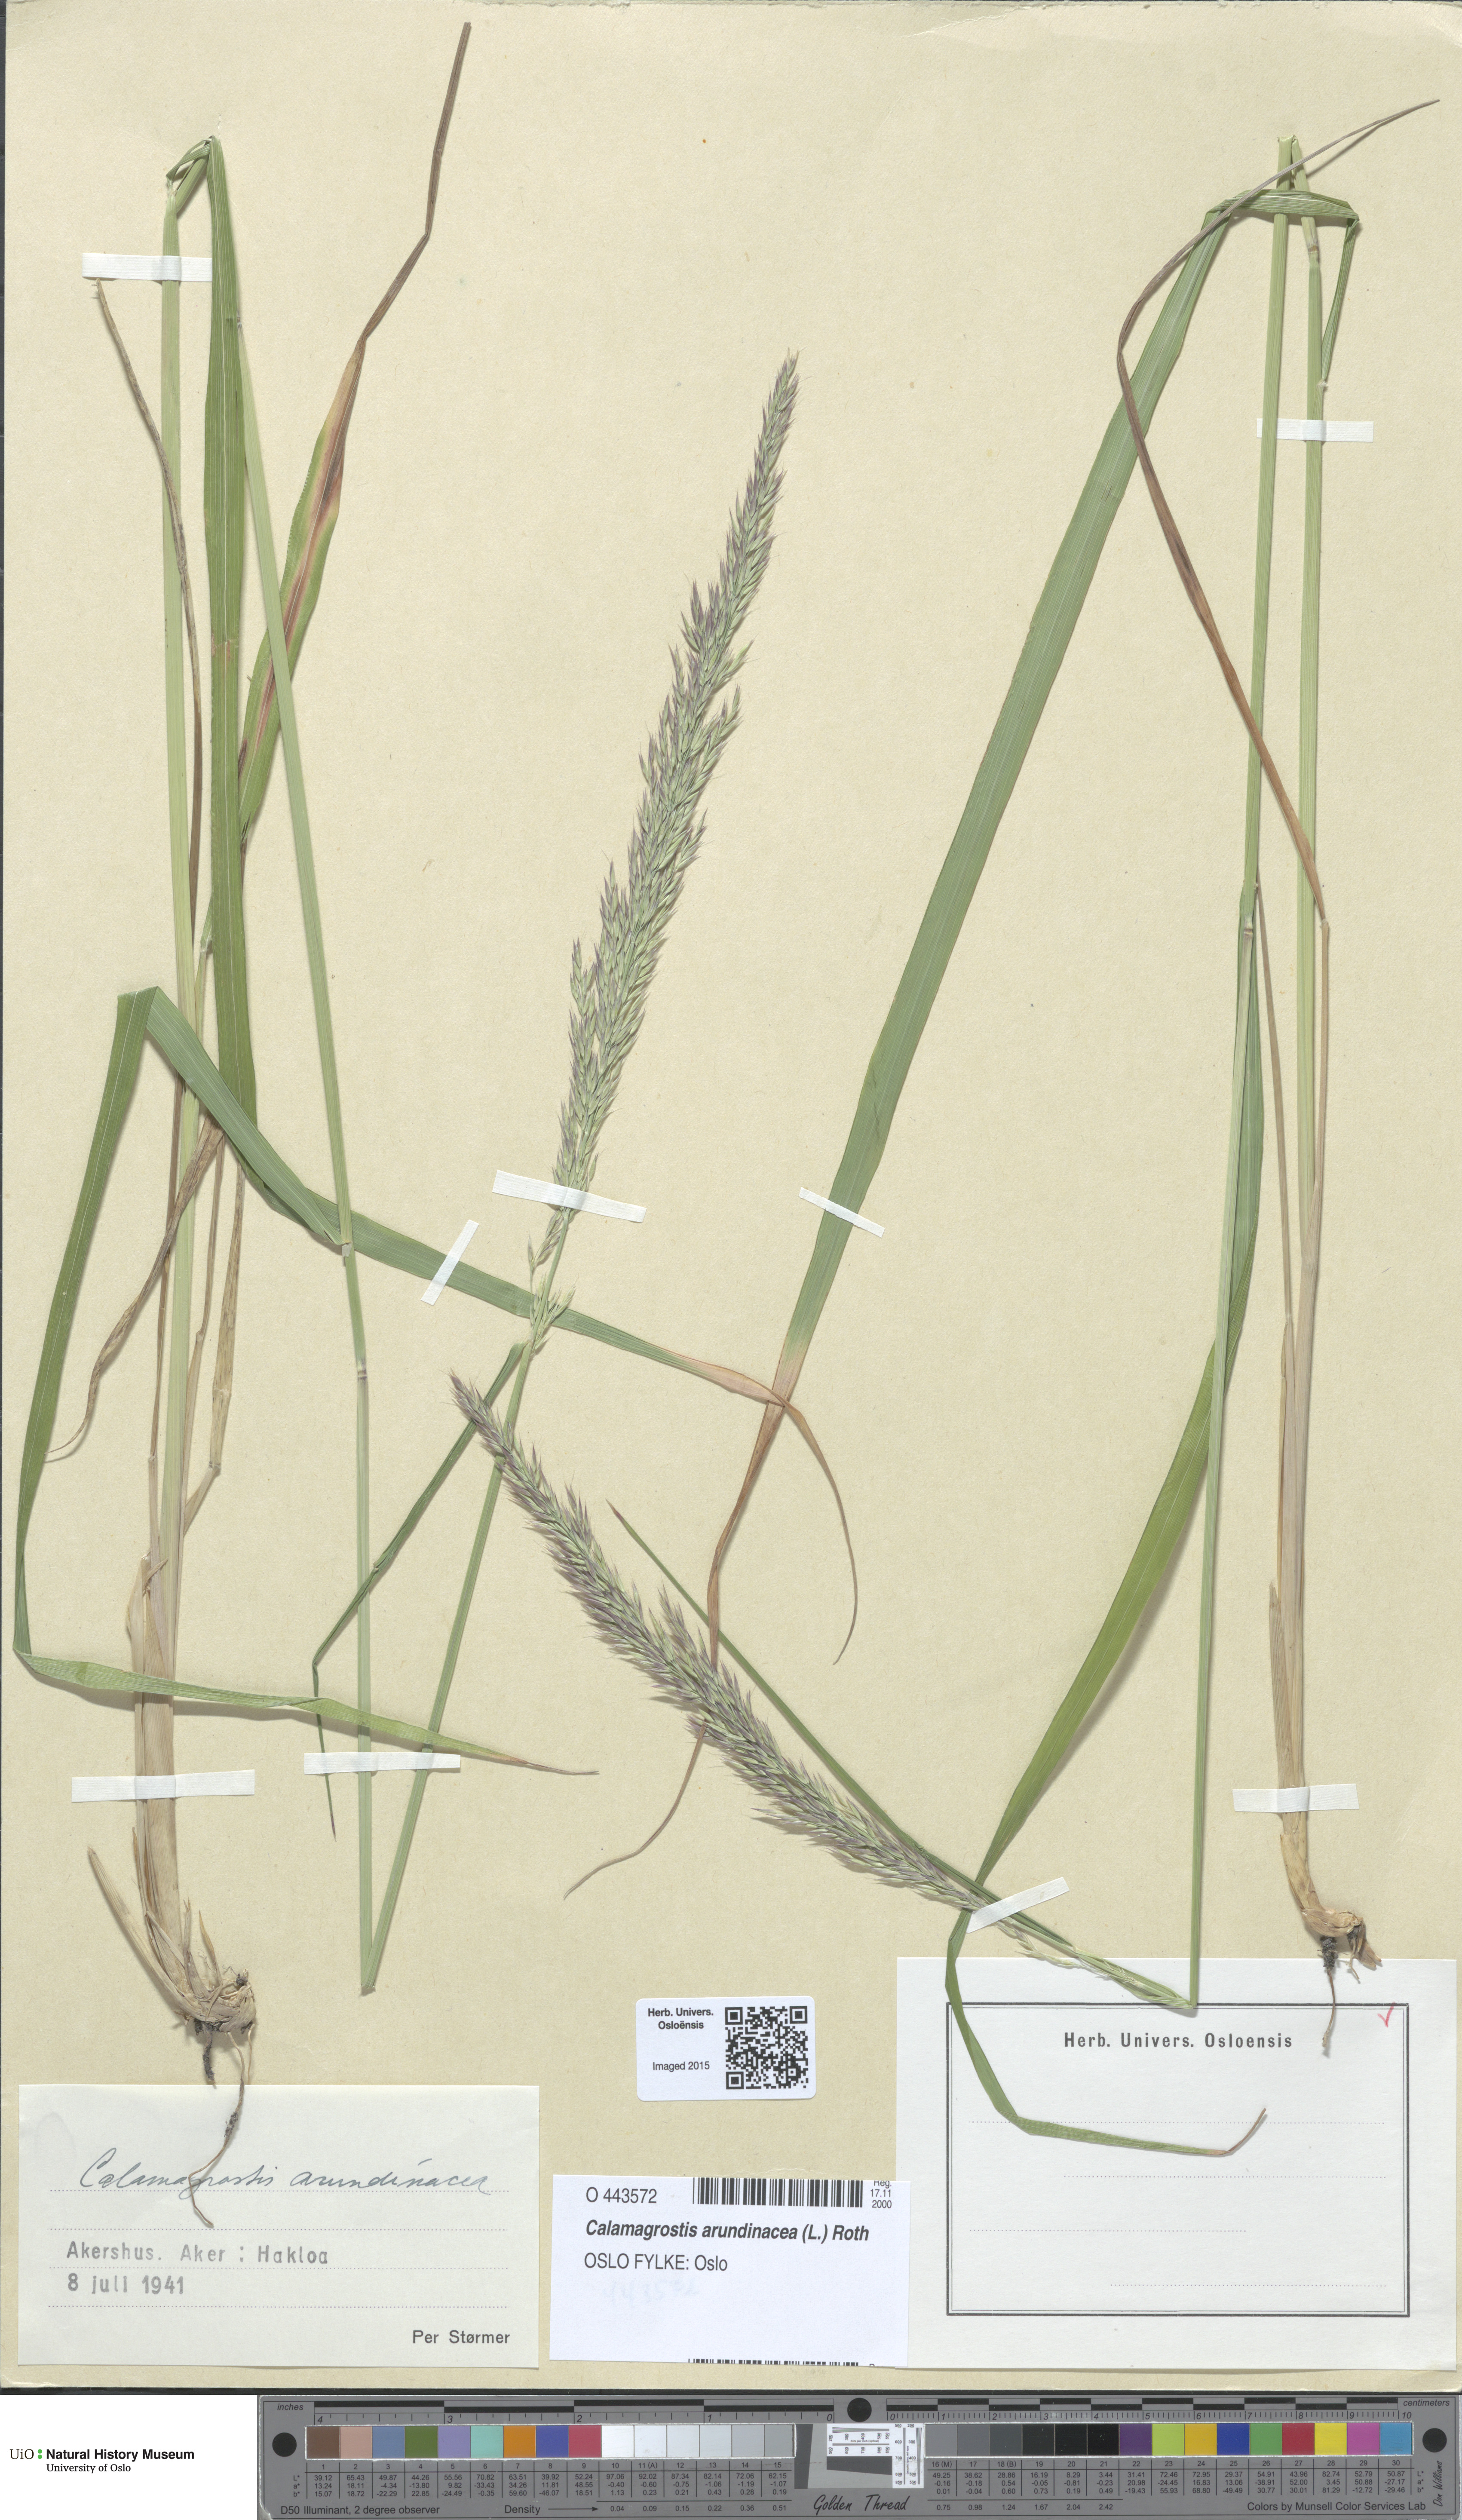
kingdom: Plantae
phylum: Tracheophyta
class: Liliopsida
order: Poales
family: Poaceae
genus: Calamagrostis
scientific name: Calamagrostis arundinacea
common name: Metskastik
